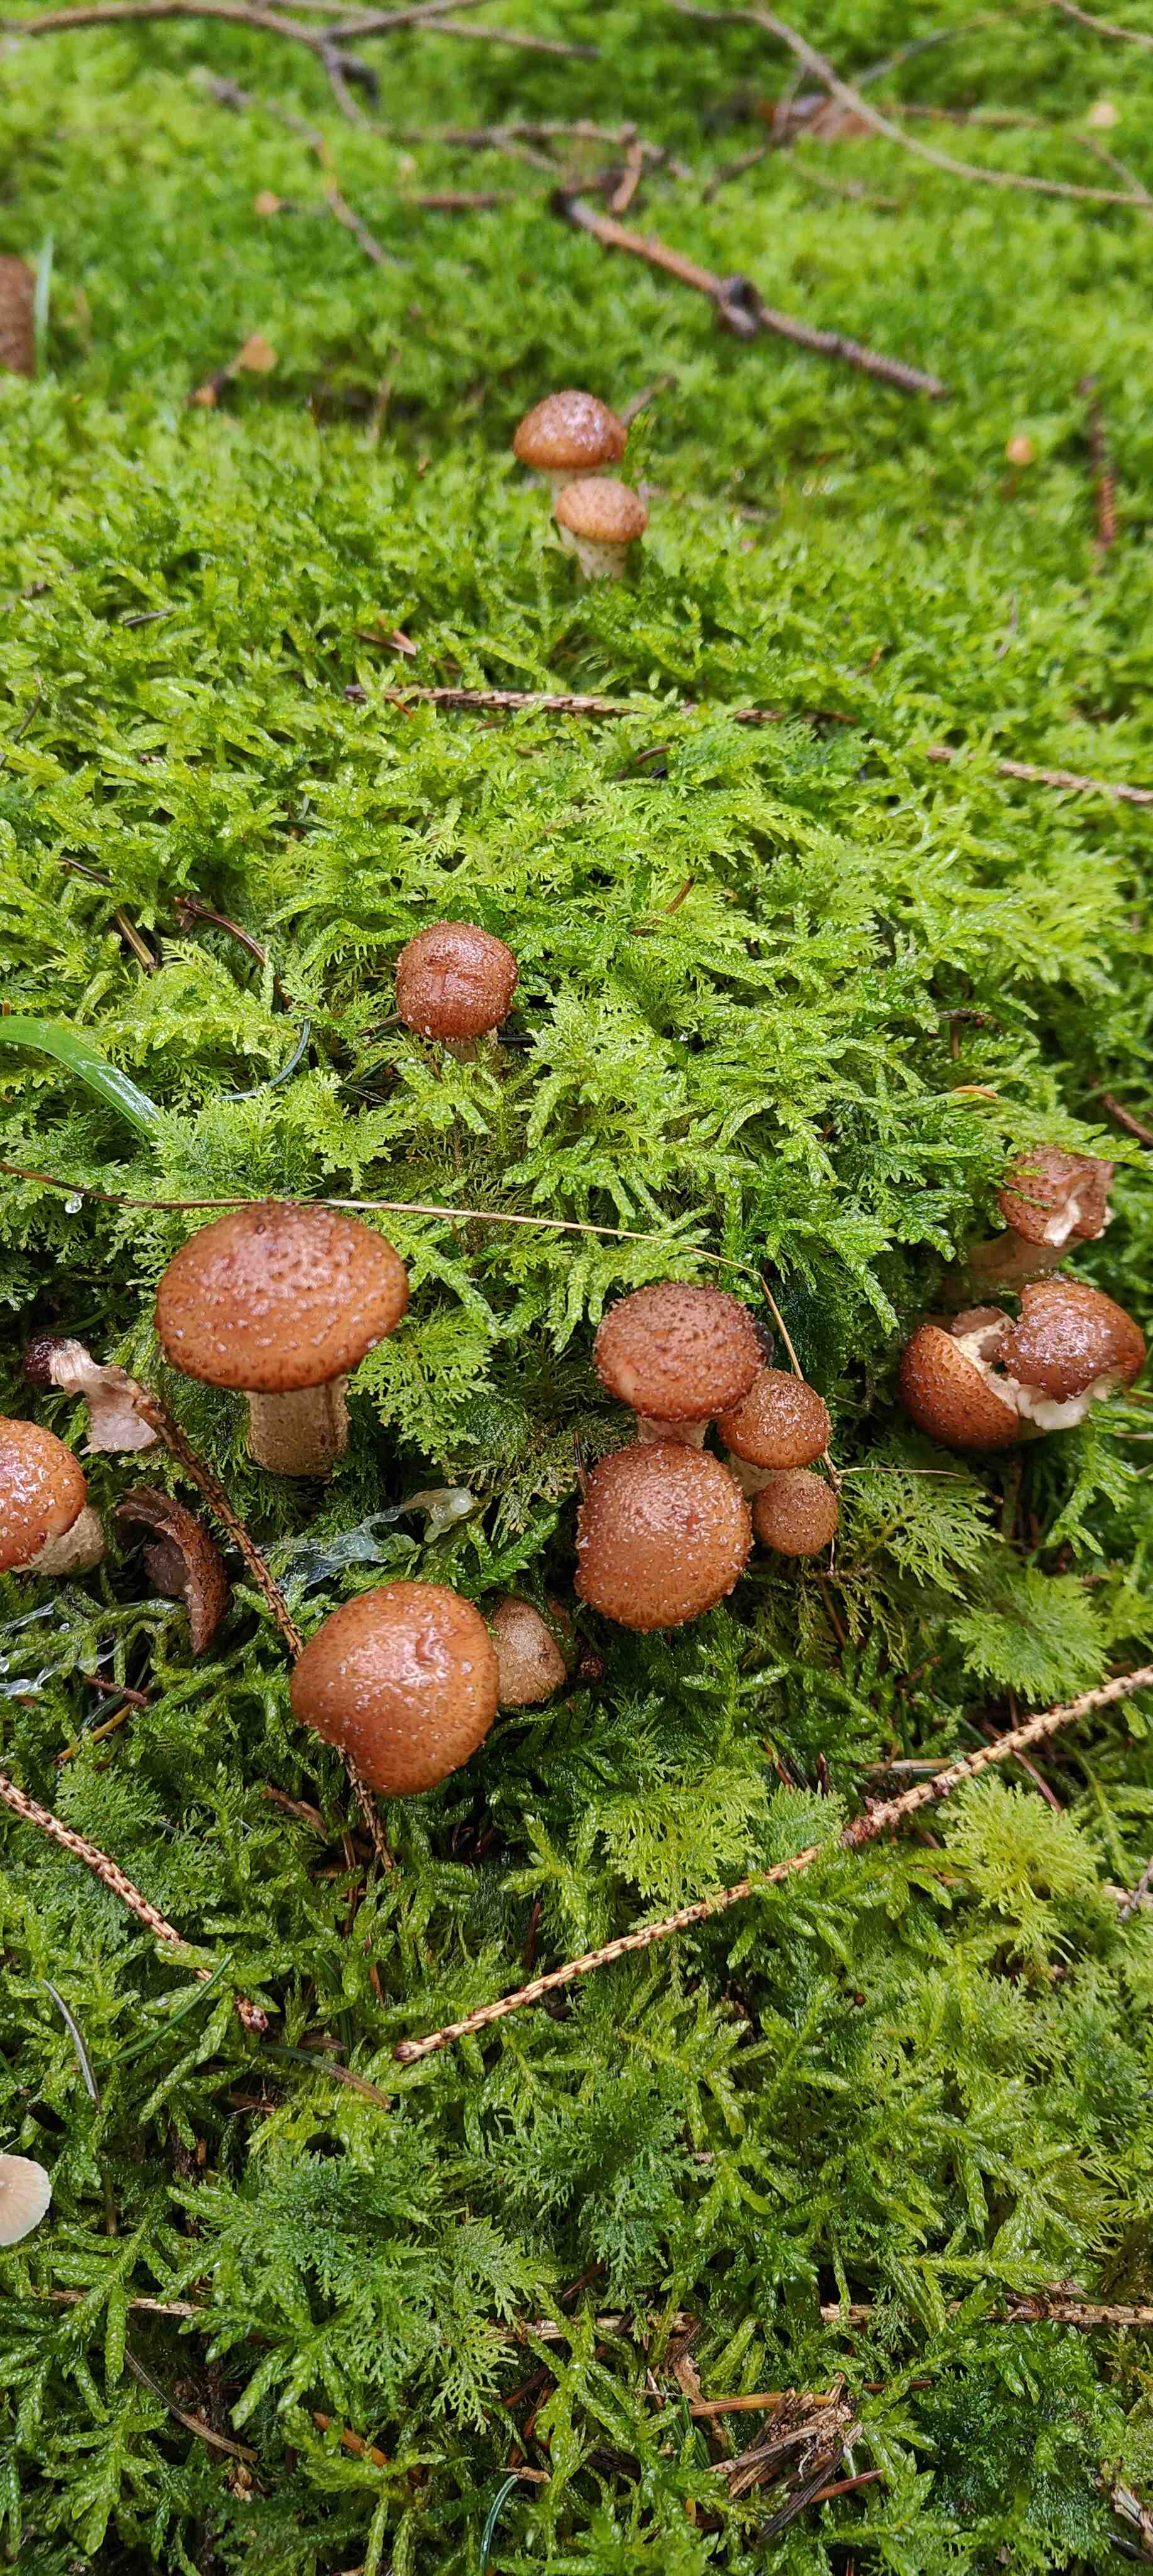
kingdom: Fungi
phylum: Basidiomycota
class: Agaricomycetes
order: Agaricales
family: Physalacriaceae
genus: Armillaria
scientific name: Armillaria ostoyae
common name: mørk honningsvamp
